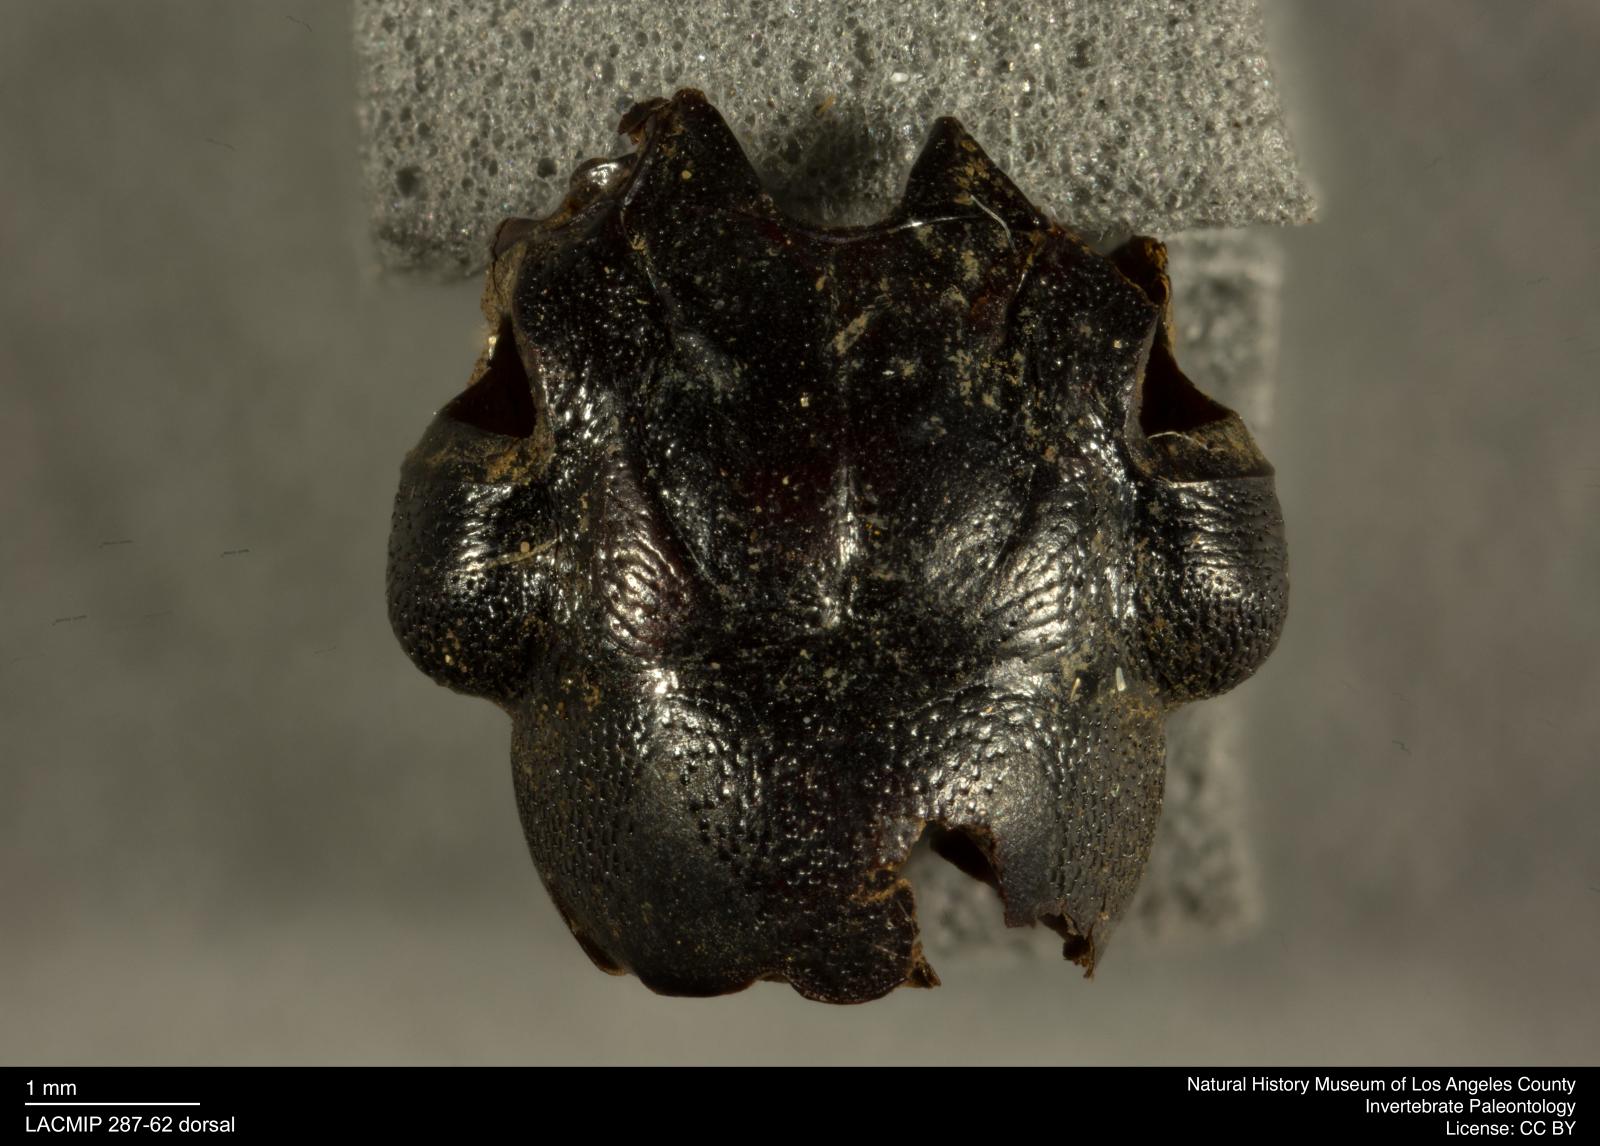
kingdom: Animalia
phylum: Arthropoda
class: Insecta
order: Coleoptera
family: Staphylinidae
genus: Nicrophorus
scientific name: Nicrophorus marginatus
